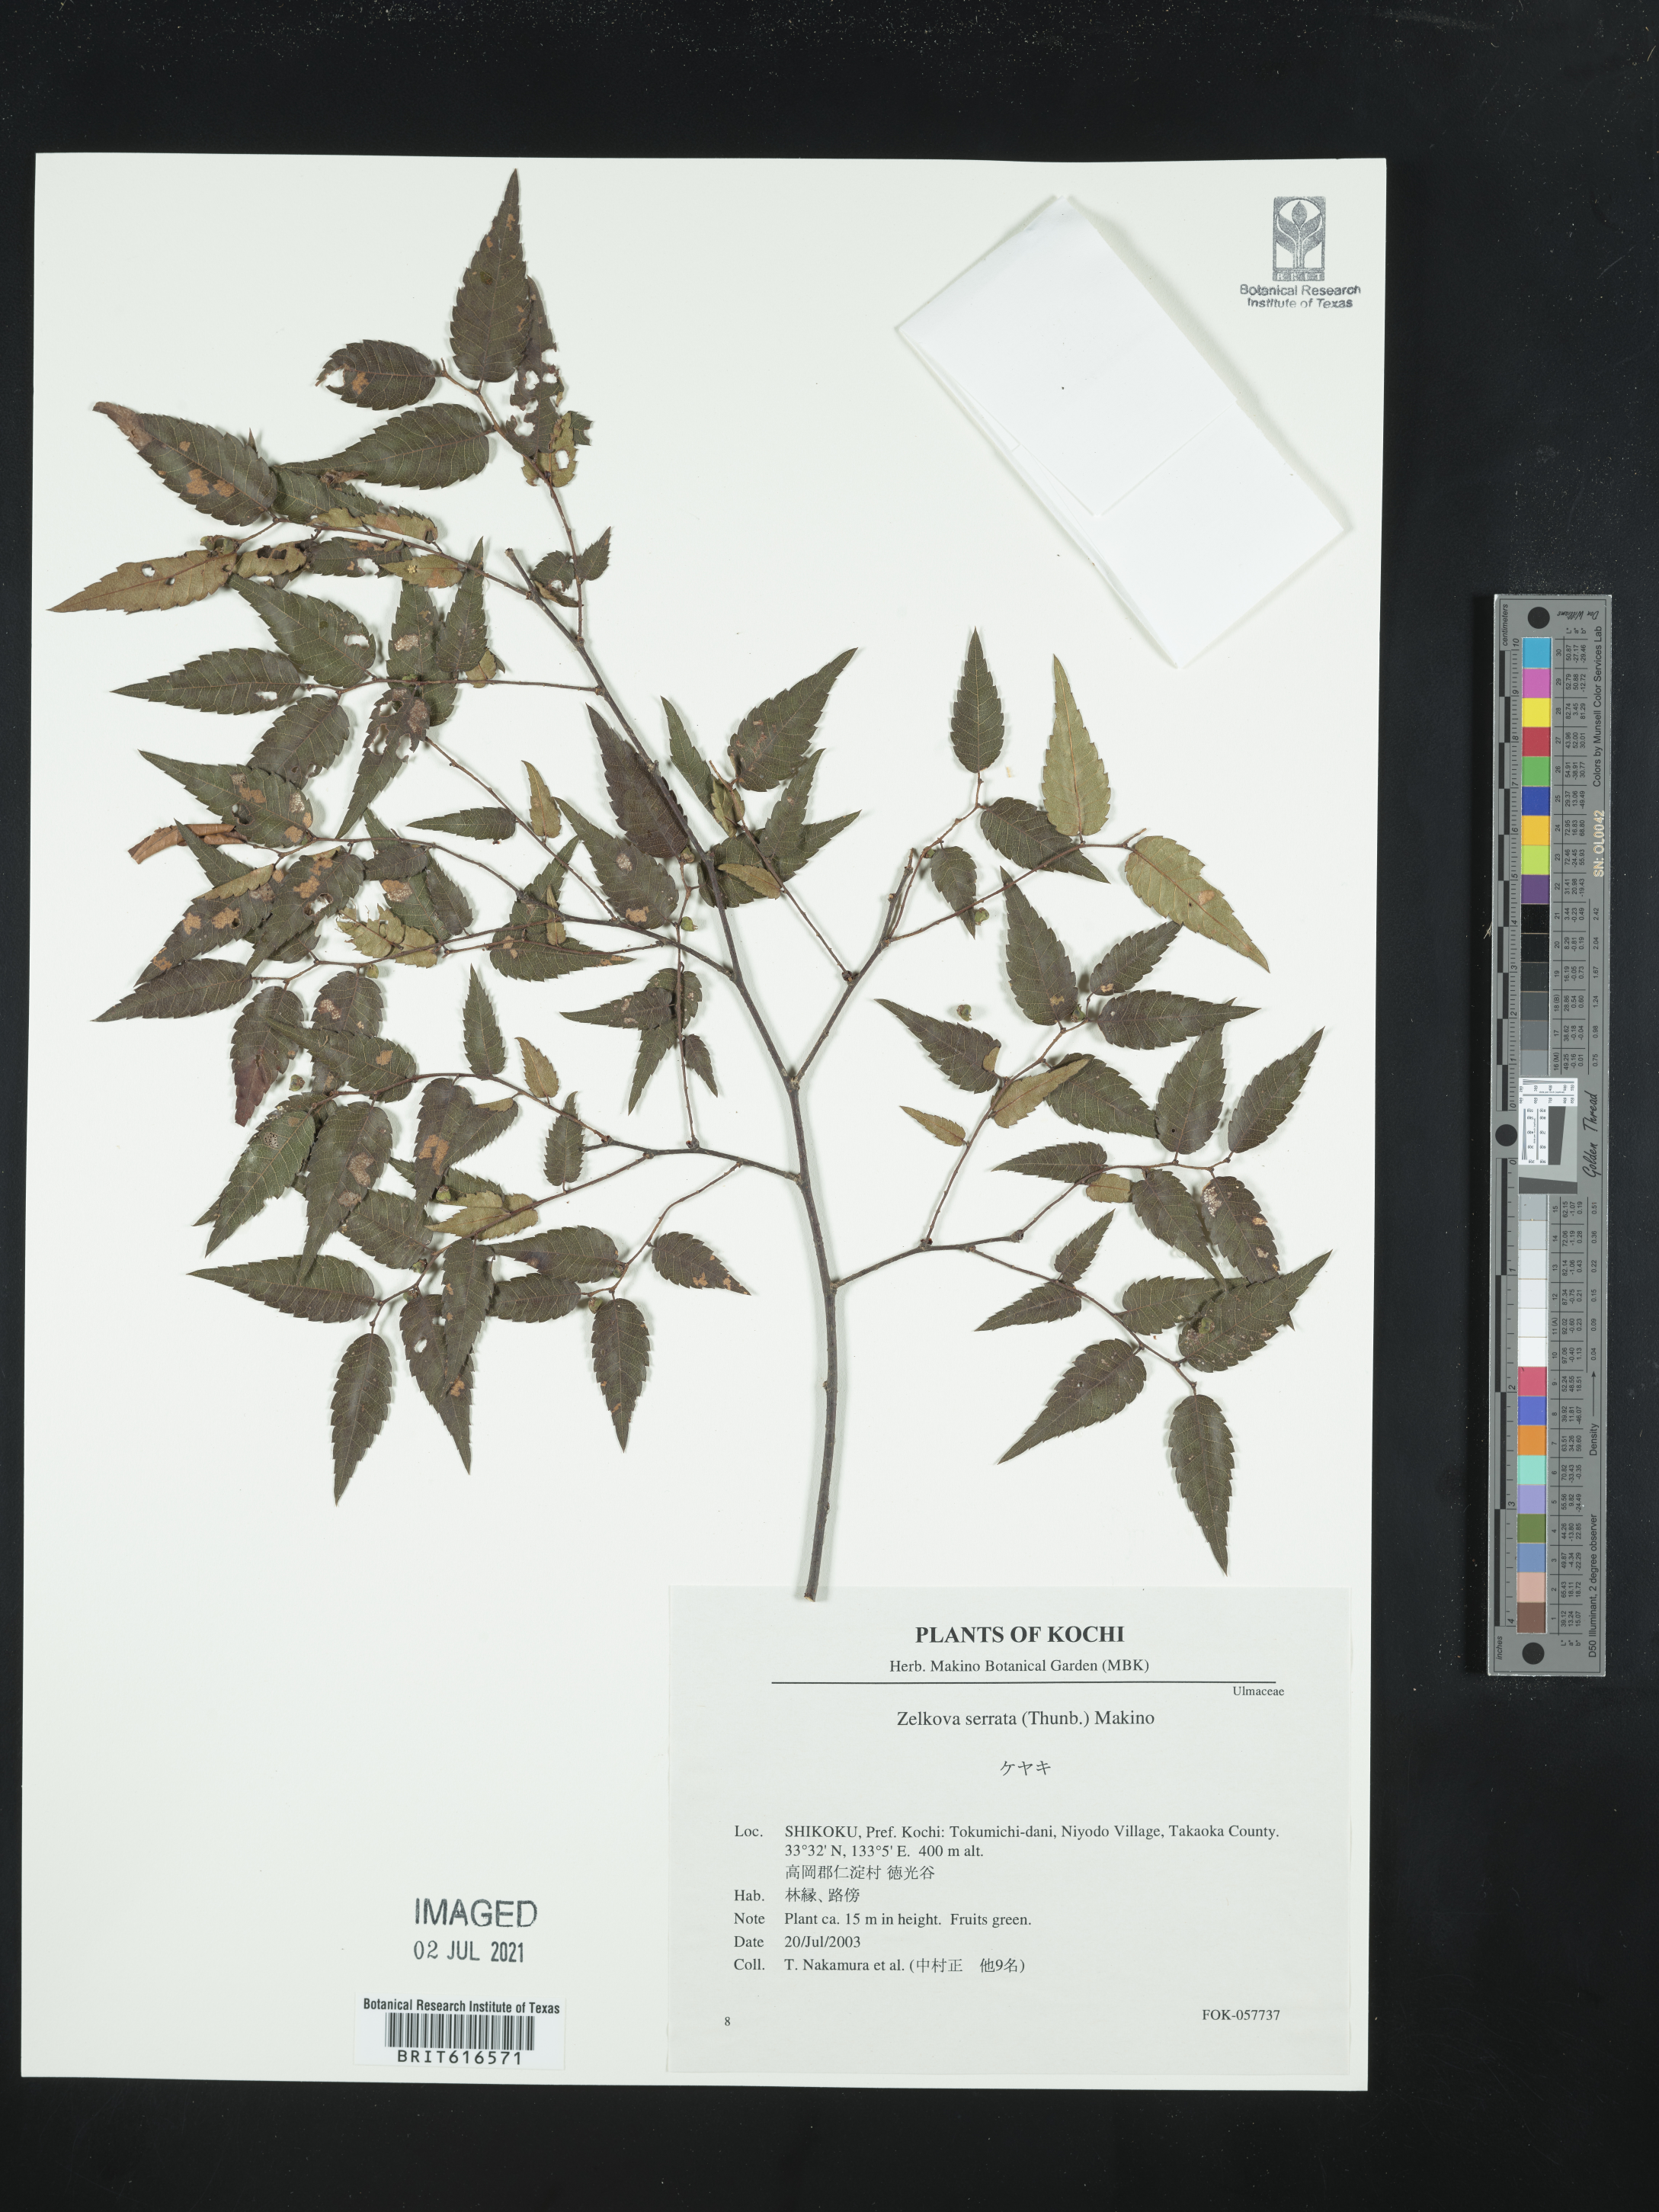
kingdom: Plantae
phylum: Tracheophyta
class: Magnoliopsida
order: Rosales
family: Ulmaceae
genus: Zelkova
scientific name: Zelkova serrata
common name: Japanese zelkova
